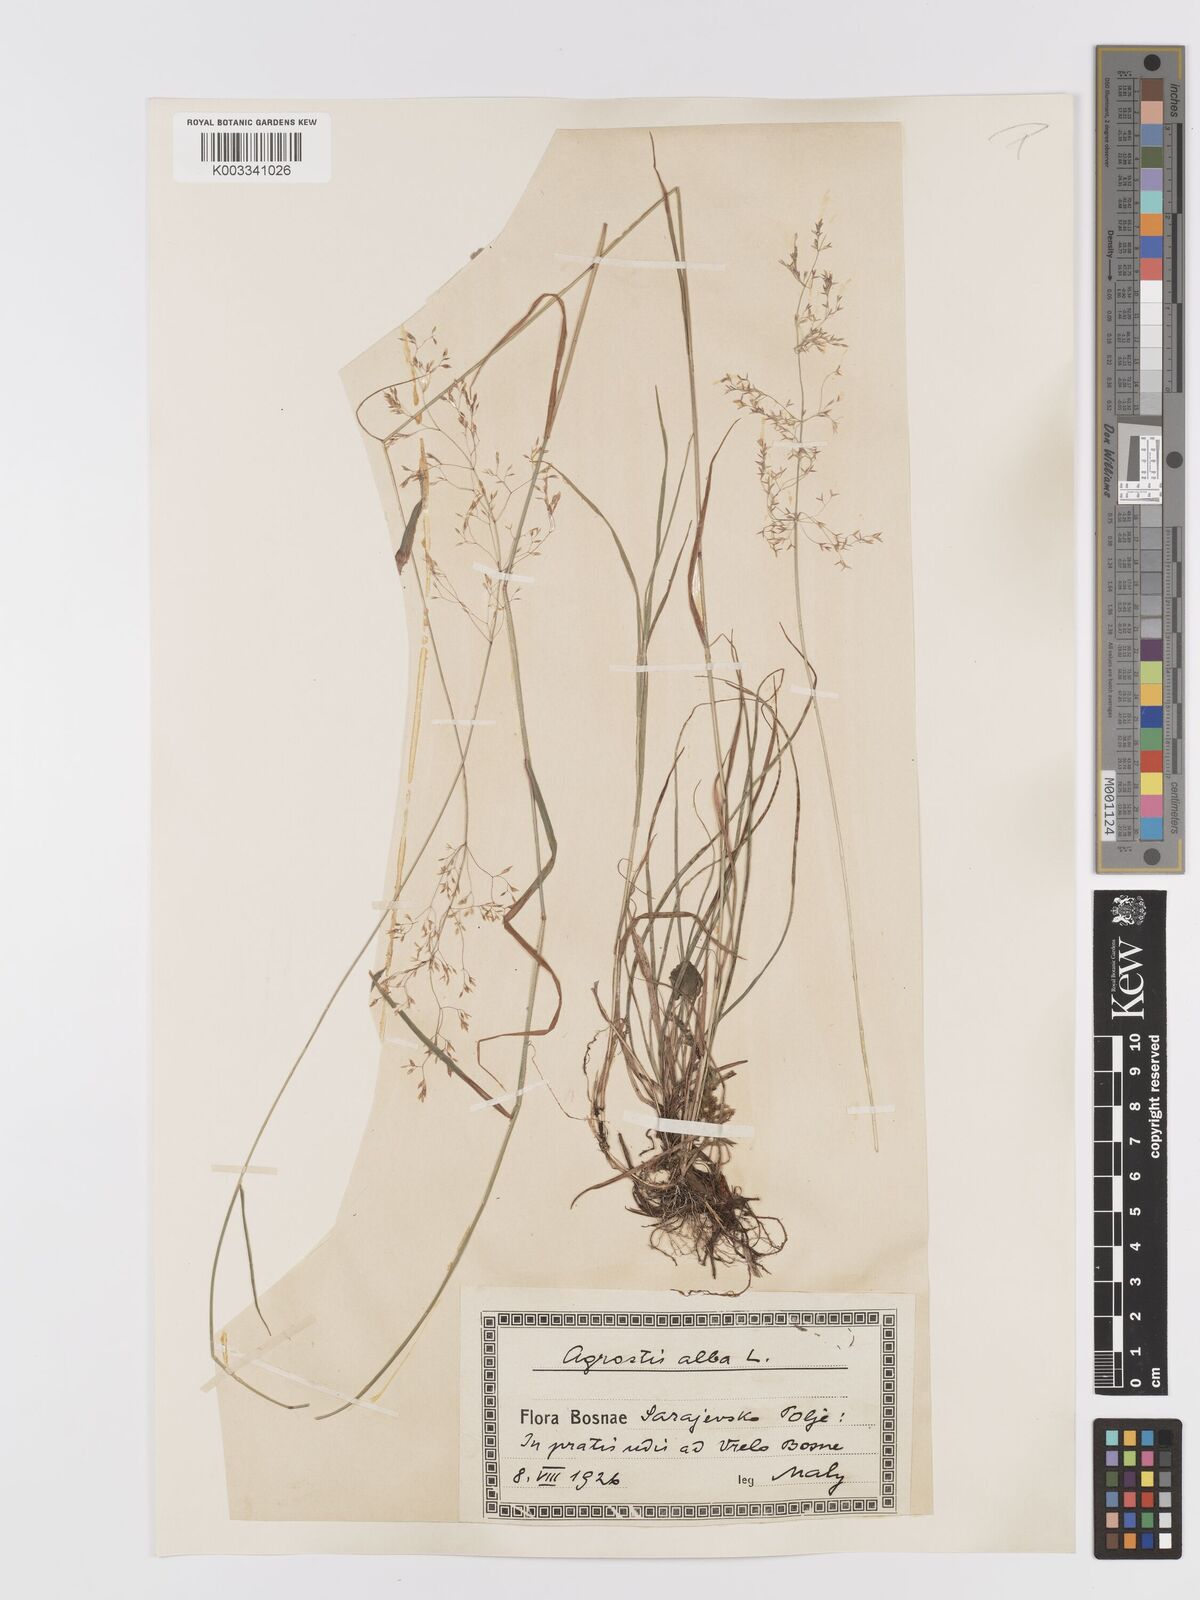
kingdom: Plantae
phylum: Tracheophyta
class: Liliopsida
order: Poales
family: Poaceae
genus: Agrostis
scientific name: Agrostis capillaris
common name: Colonial bentgrass
